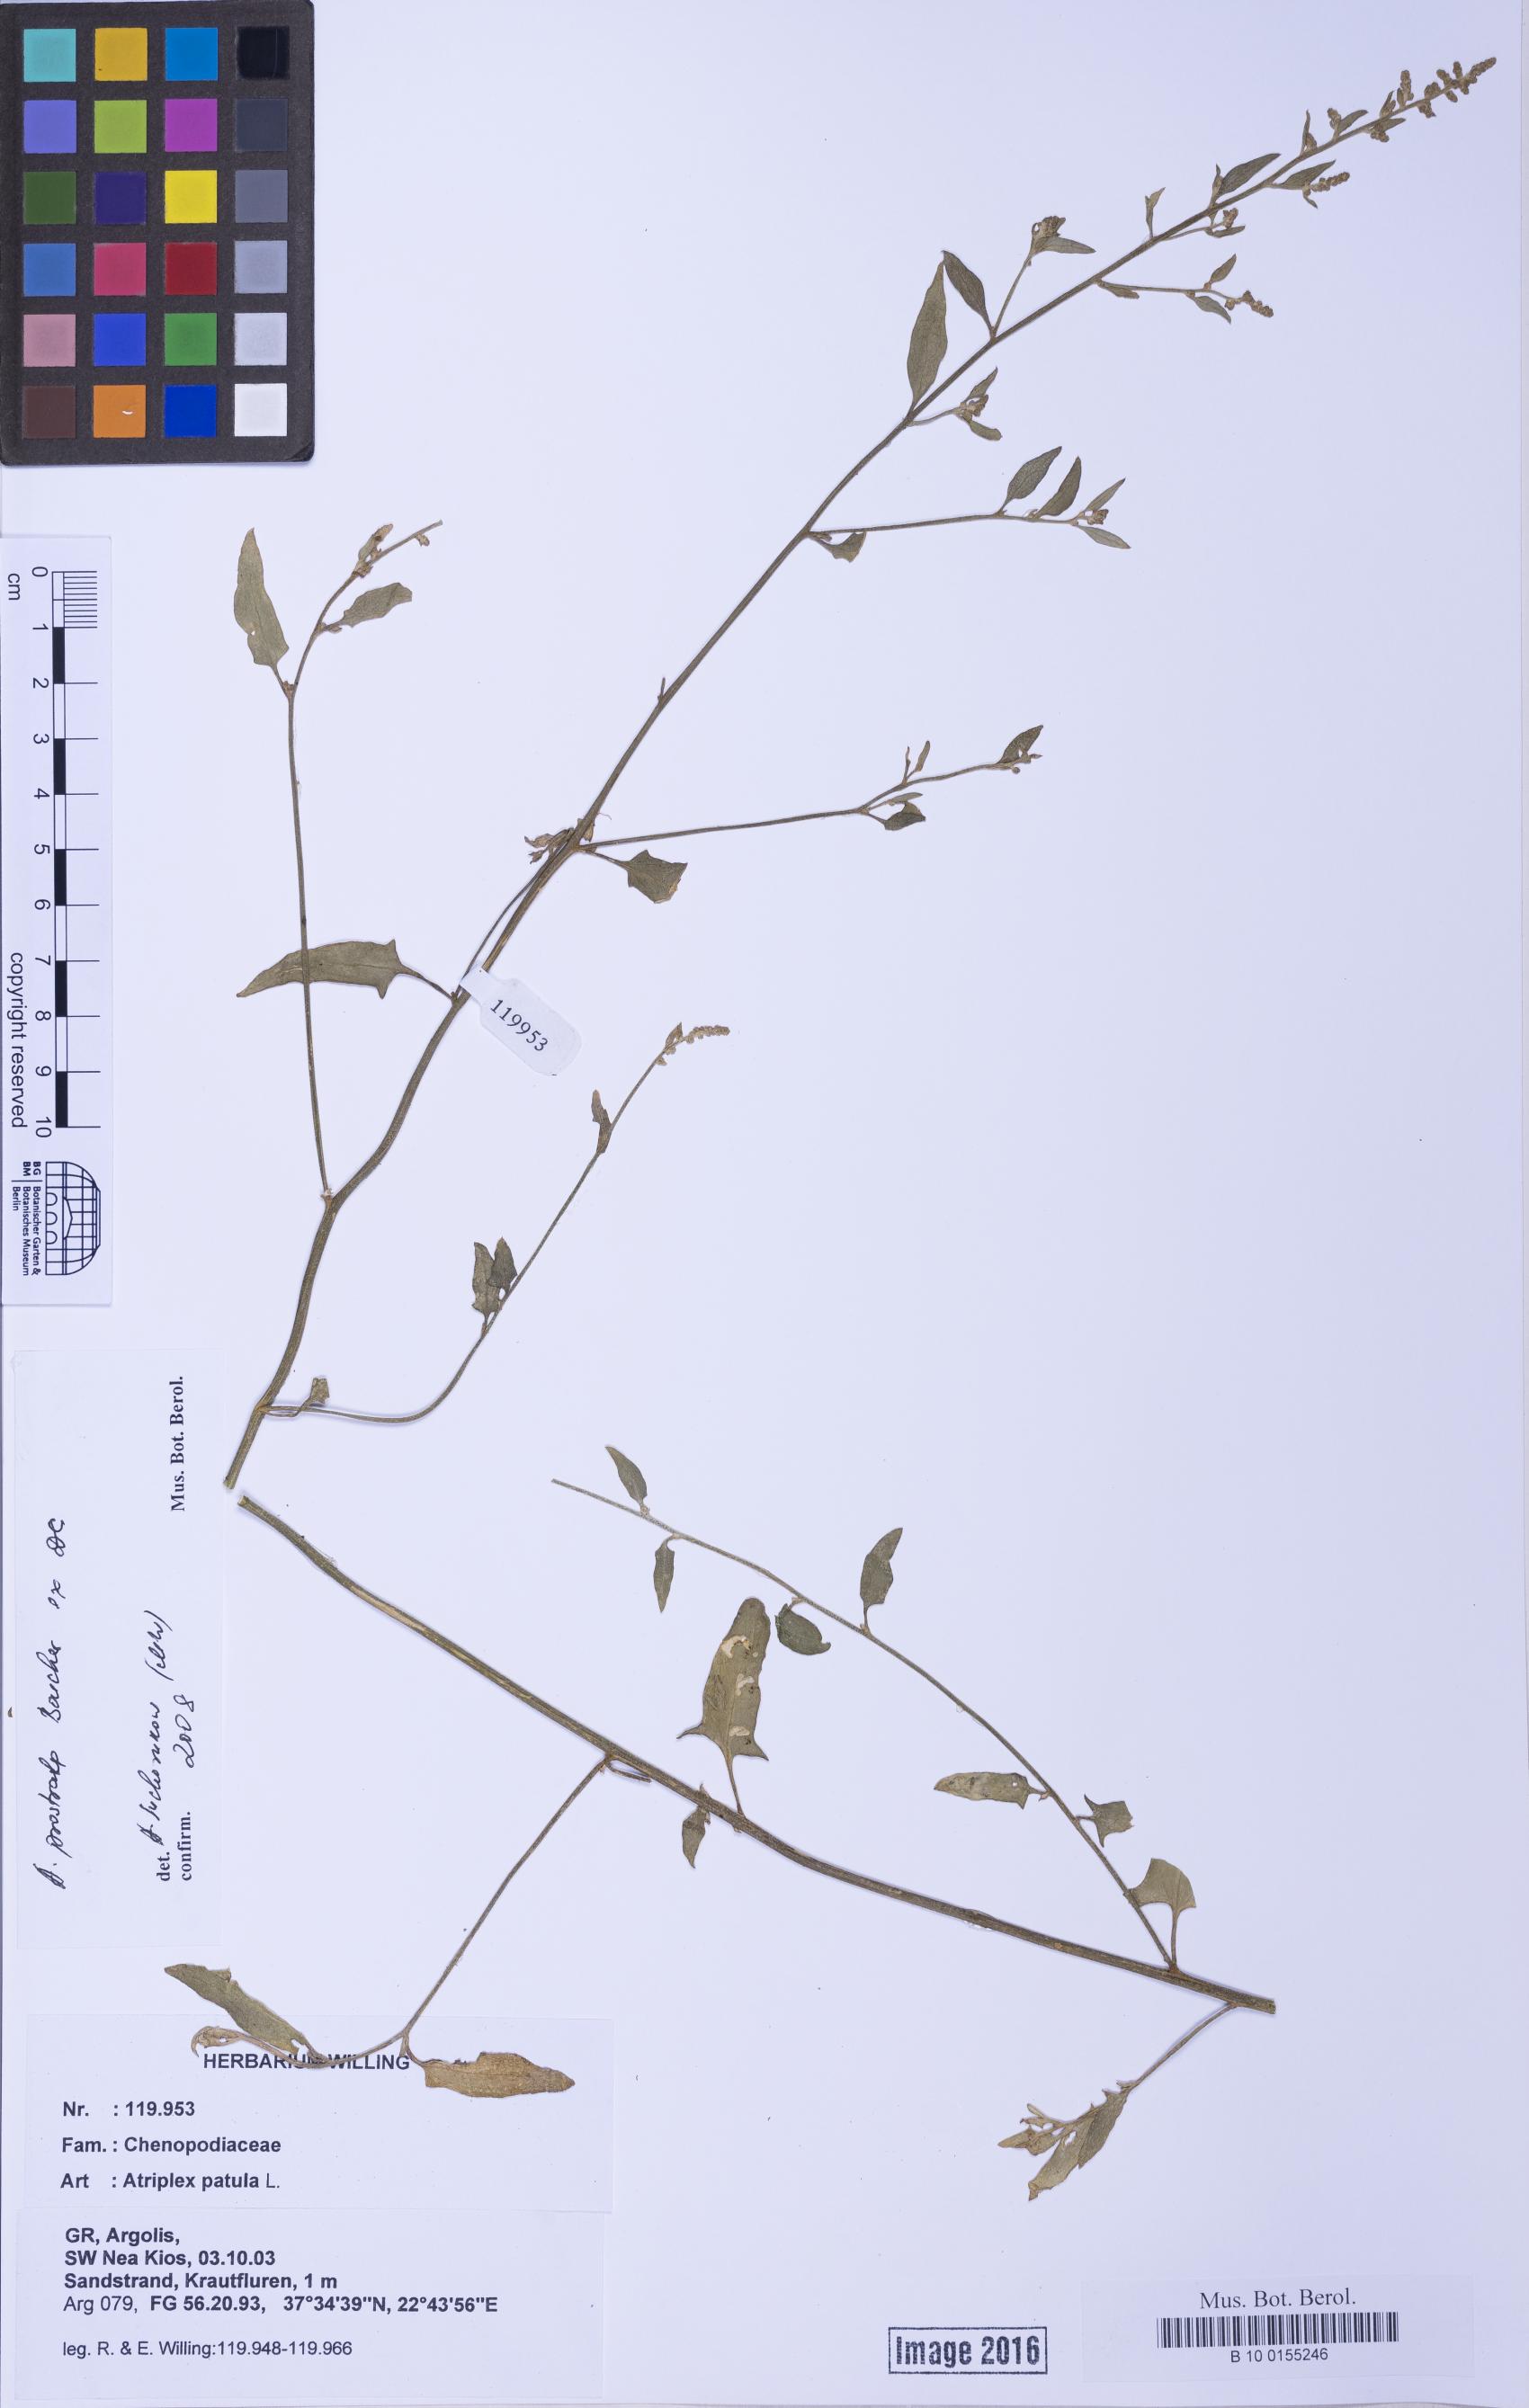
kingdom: Plantae
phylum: Tracheophyta
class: Magnoliopsida
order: Caryophyllales
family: Amaranthaceae
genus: Atriplex
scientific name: Atriplex prostrata
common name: Spear-leaved orache
